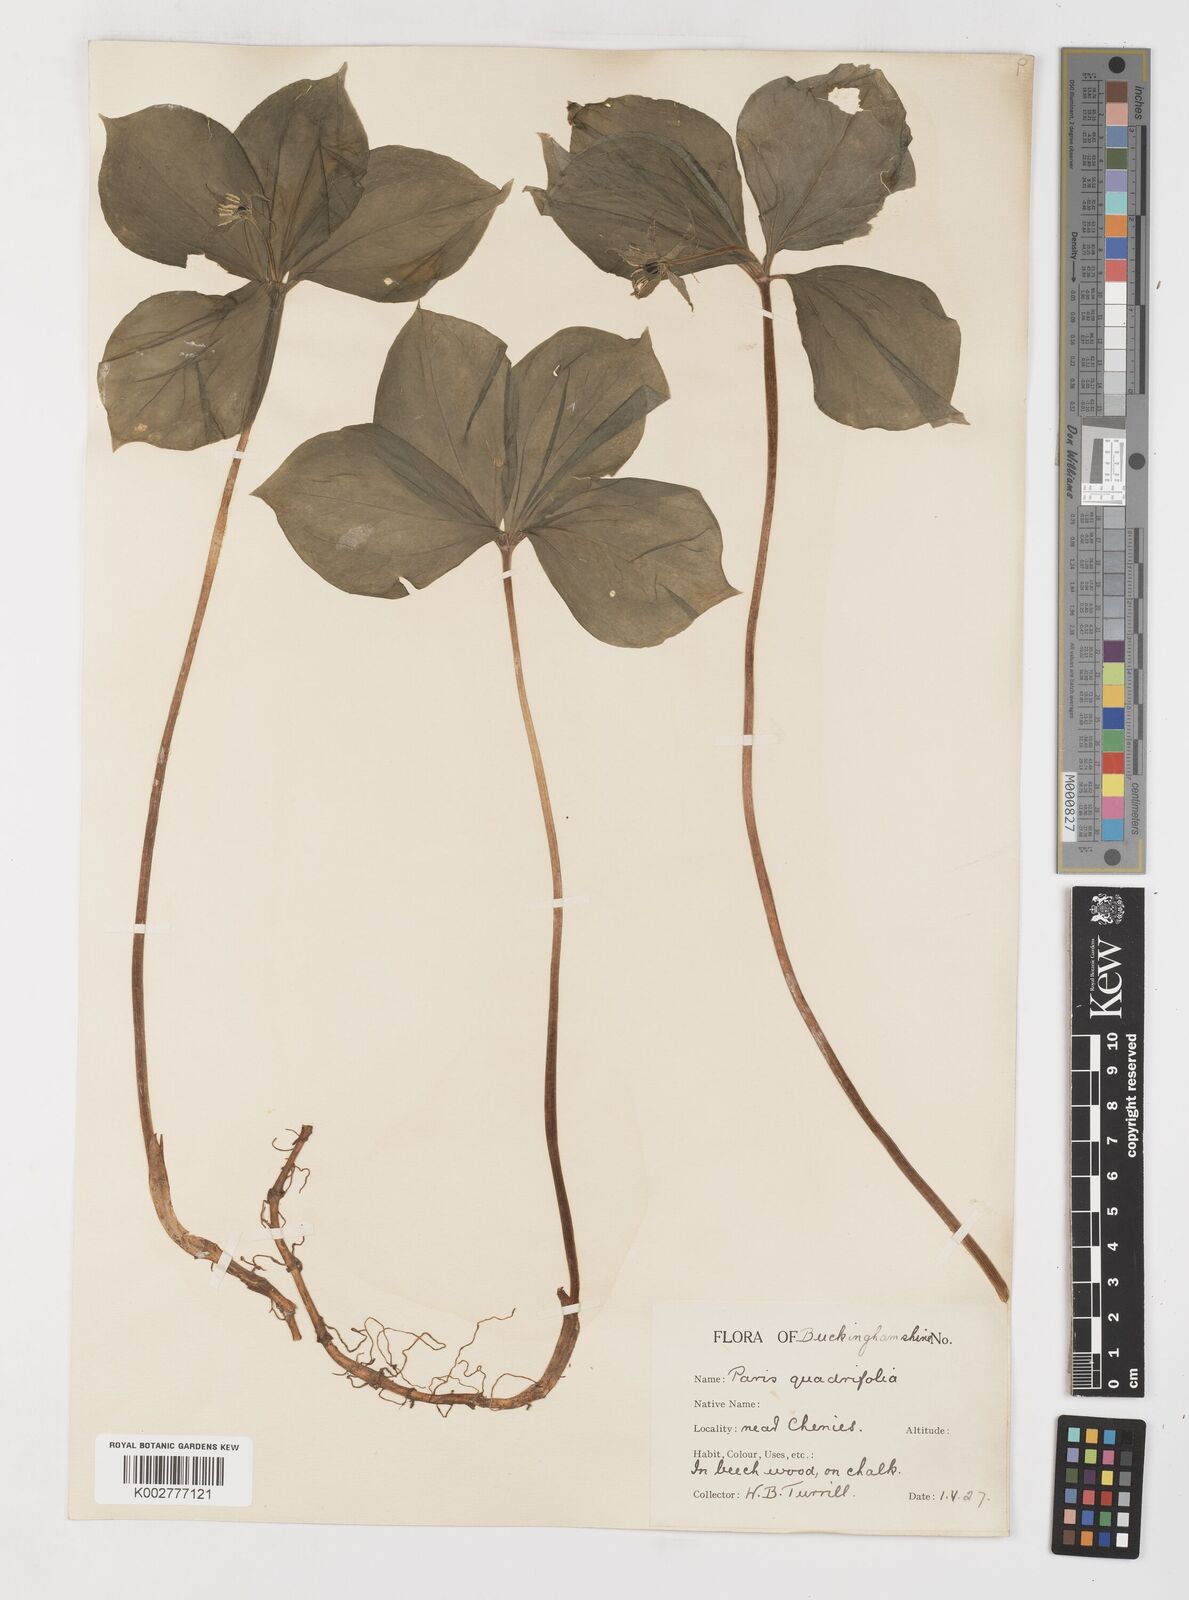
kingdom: Plantae
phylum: Tracheophyta
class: Liliopsida
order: Liliales
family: Melanthiaceae
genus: Paris
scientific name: Paris quadrifolia
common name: Herb-paris
